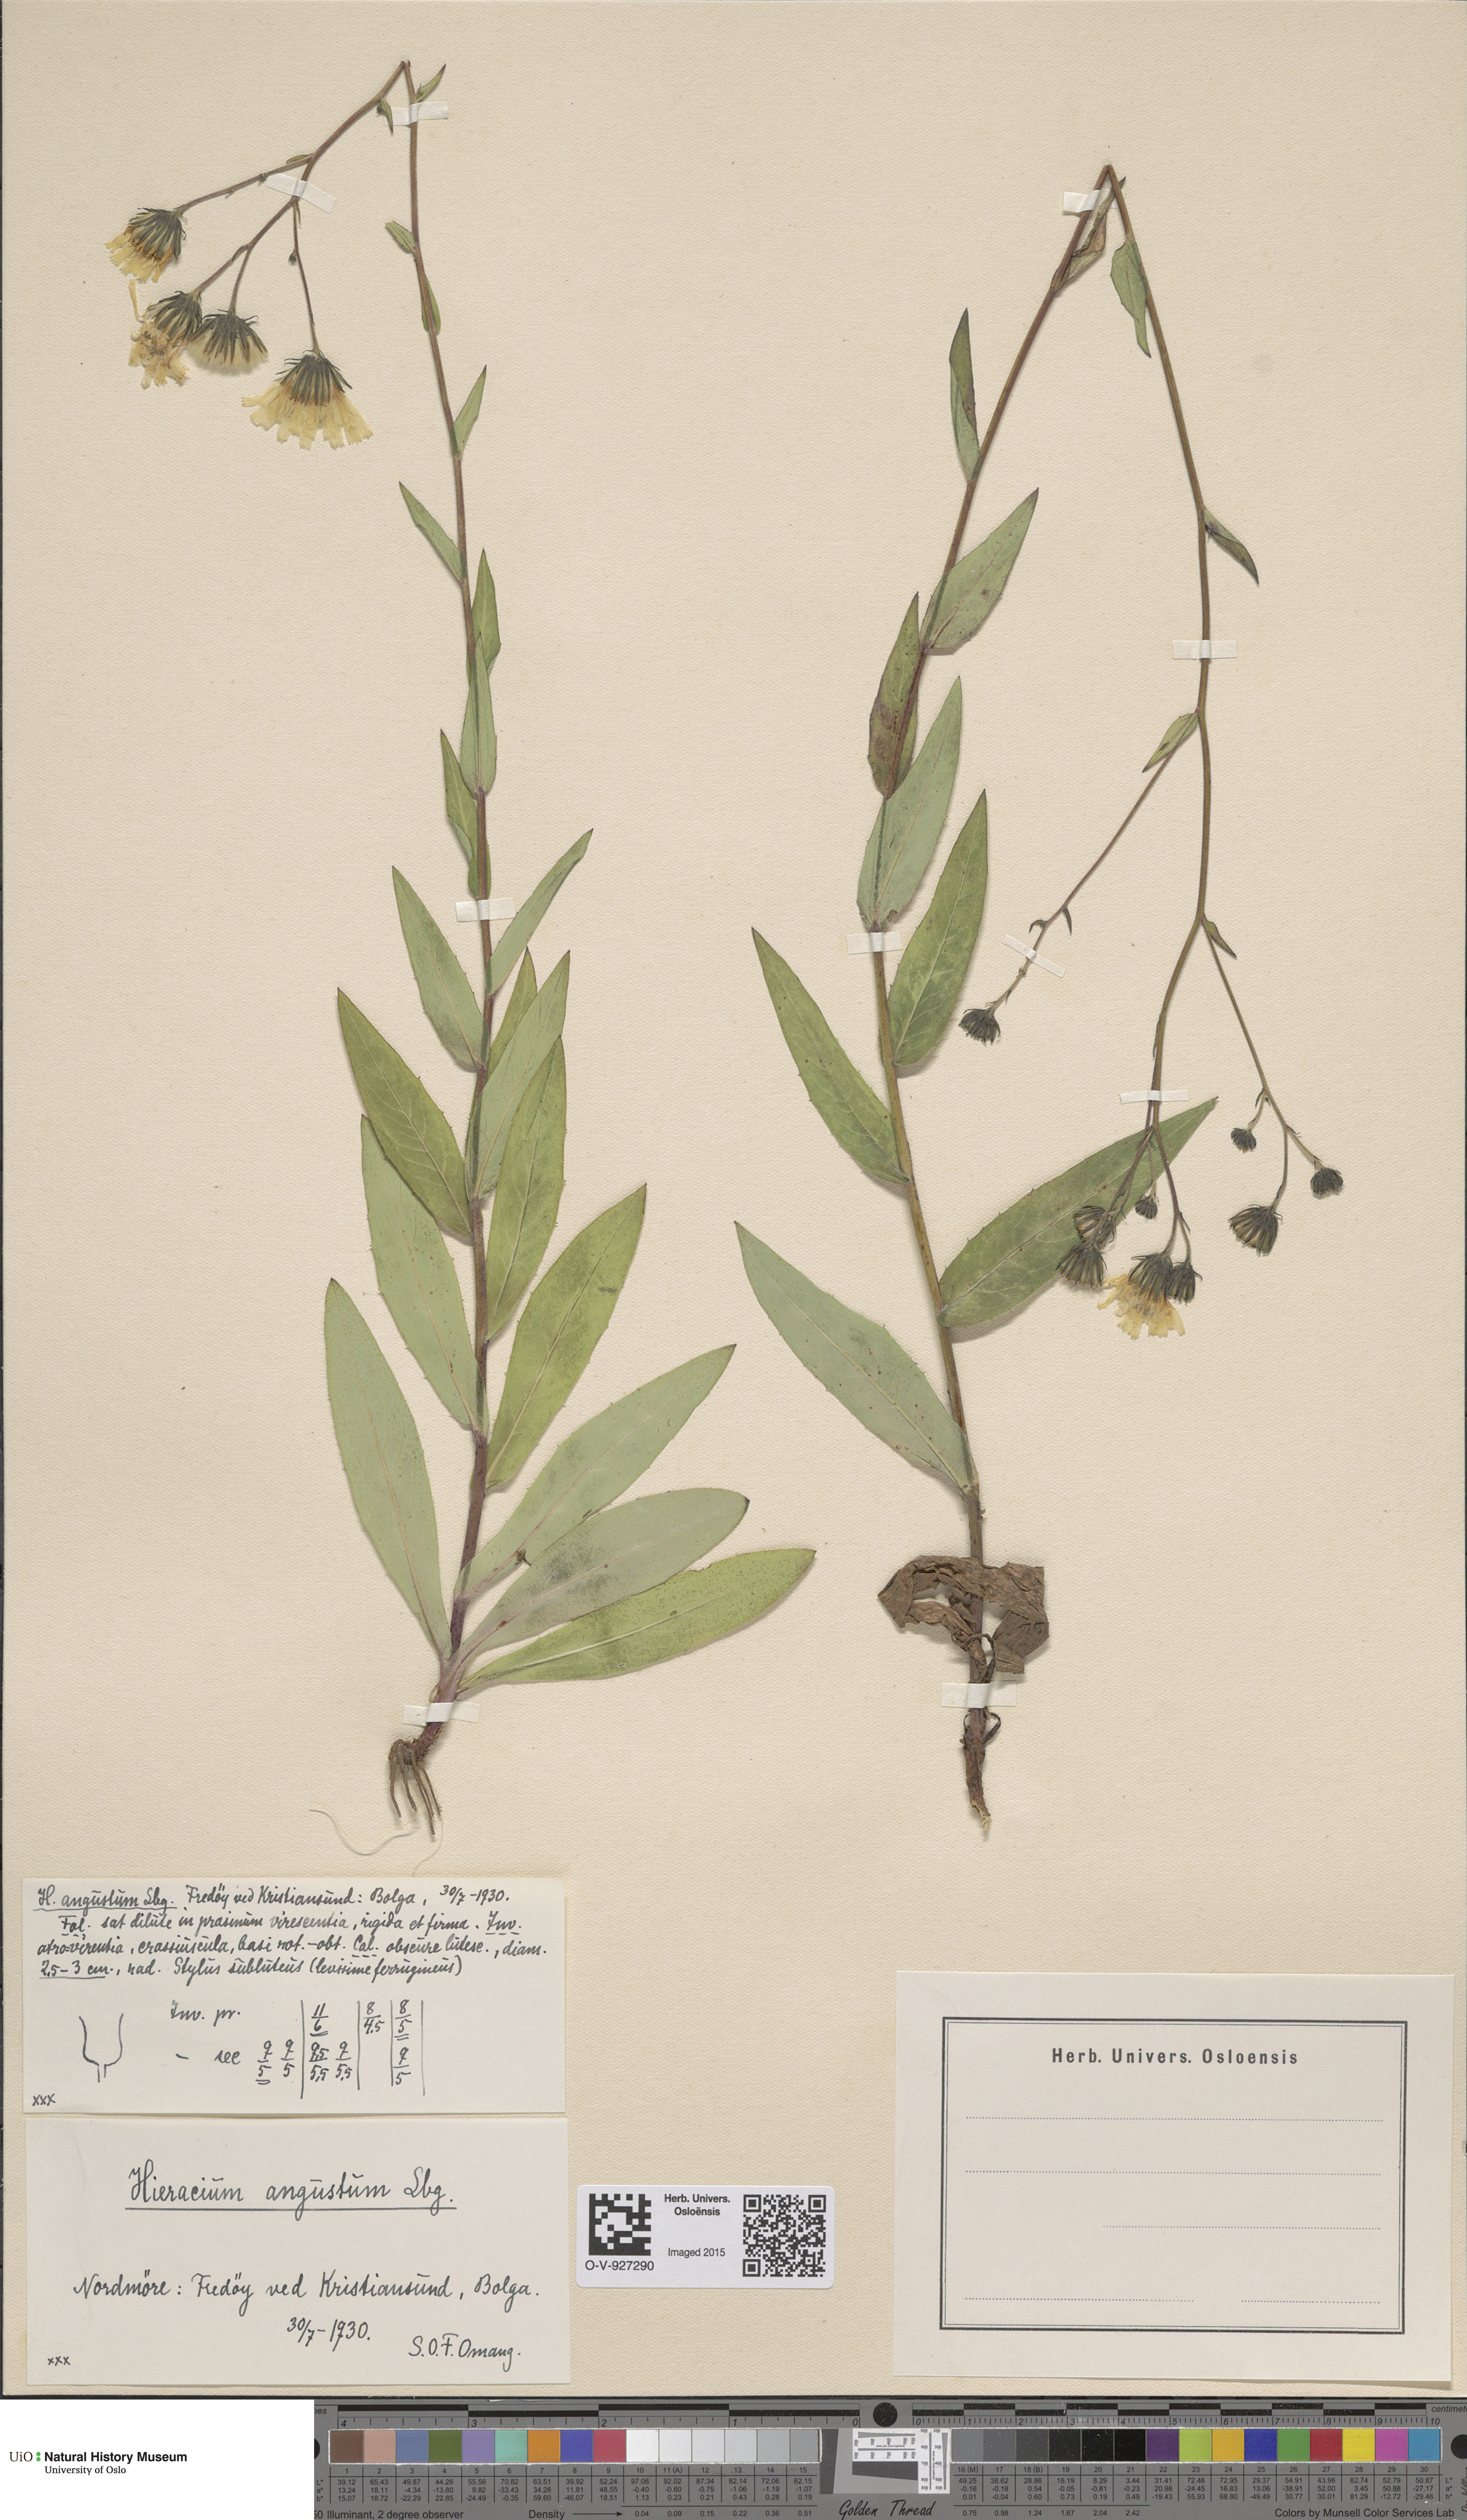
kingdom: Plantae
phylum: Tracheophyta
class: Magnoliopsida
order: Asterales
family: Asteraceae
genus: Hieracium
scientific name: Hieracium angustum
